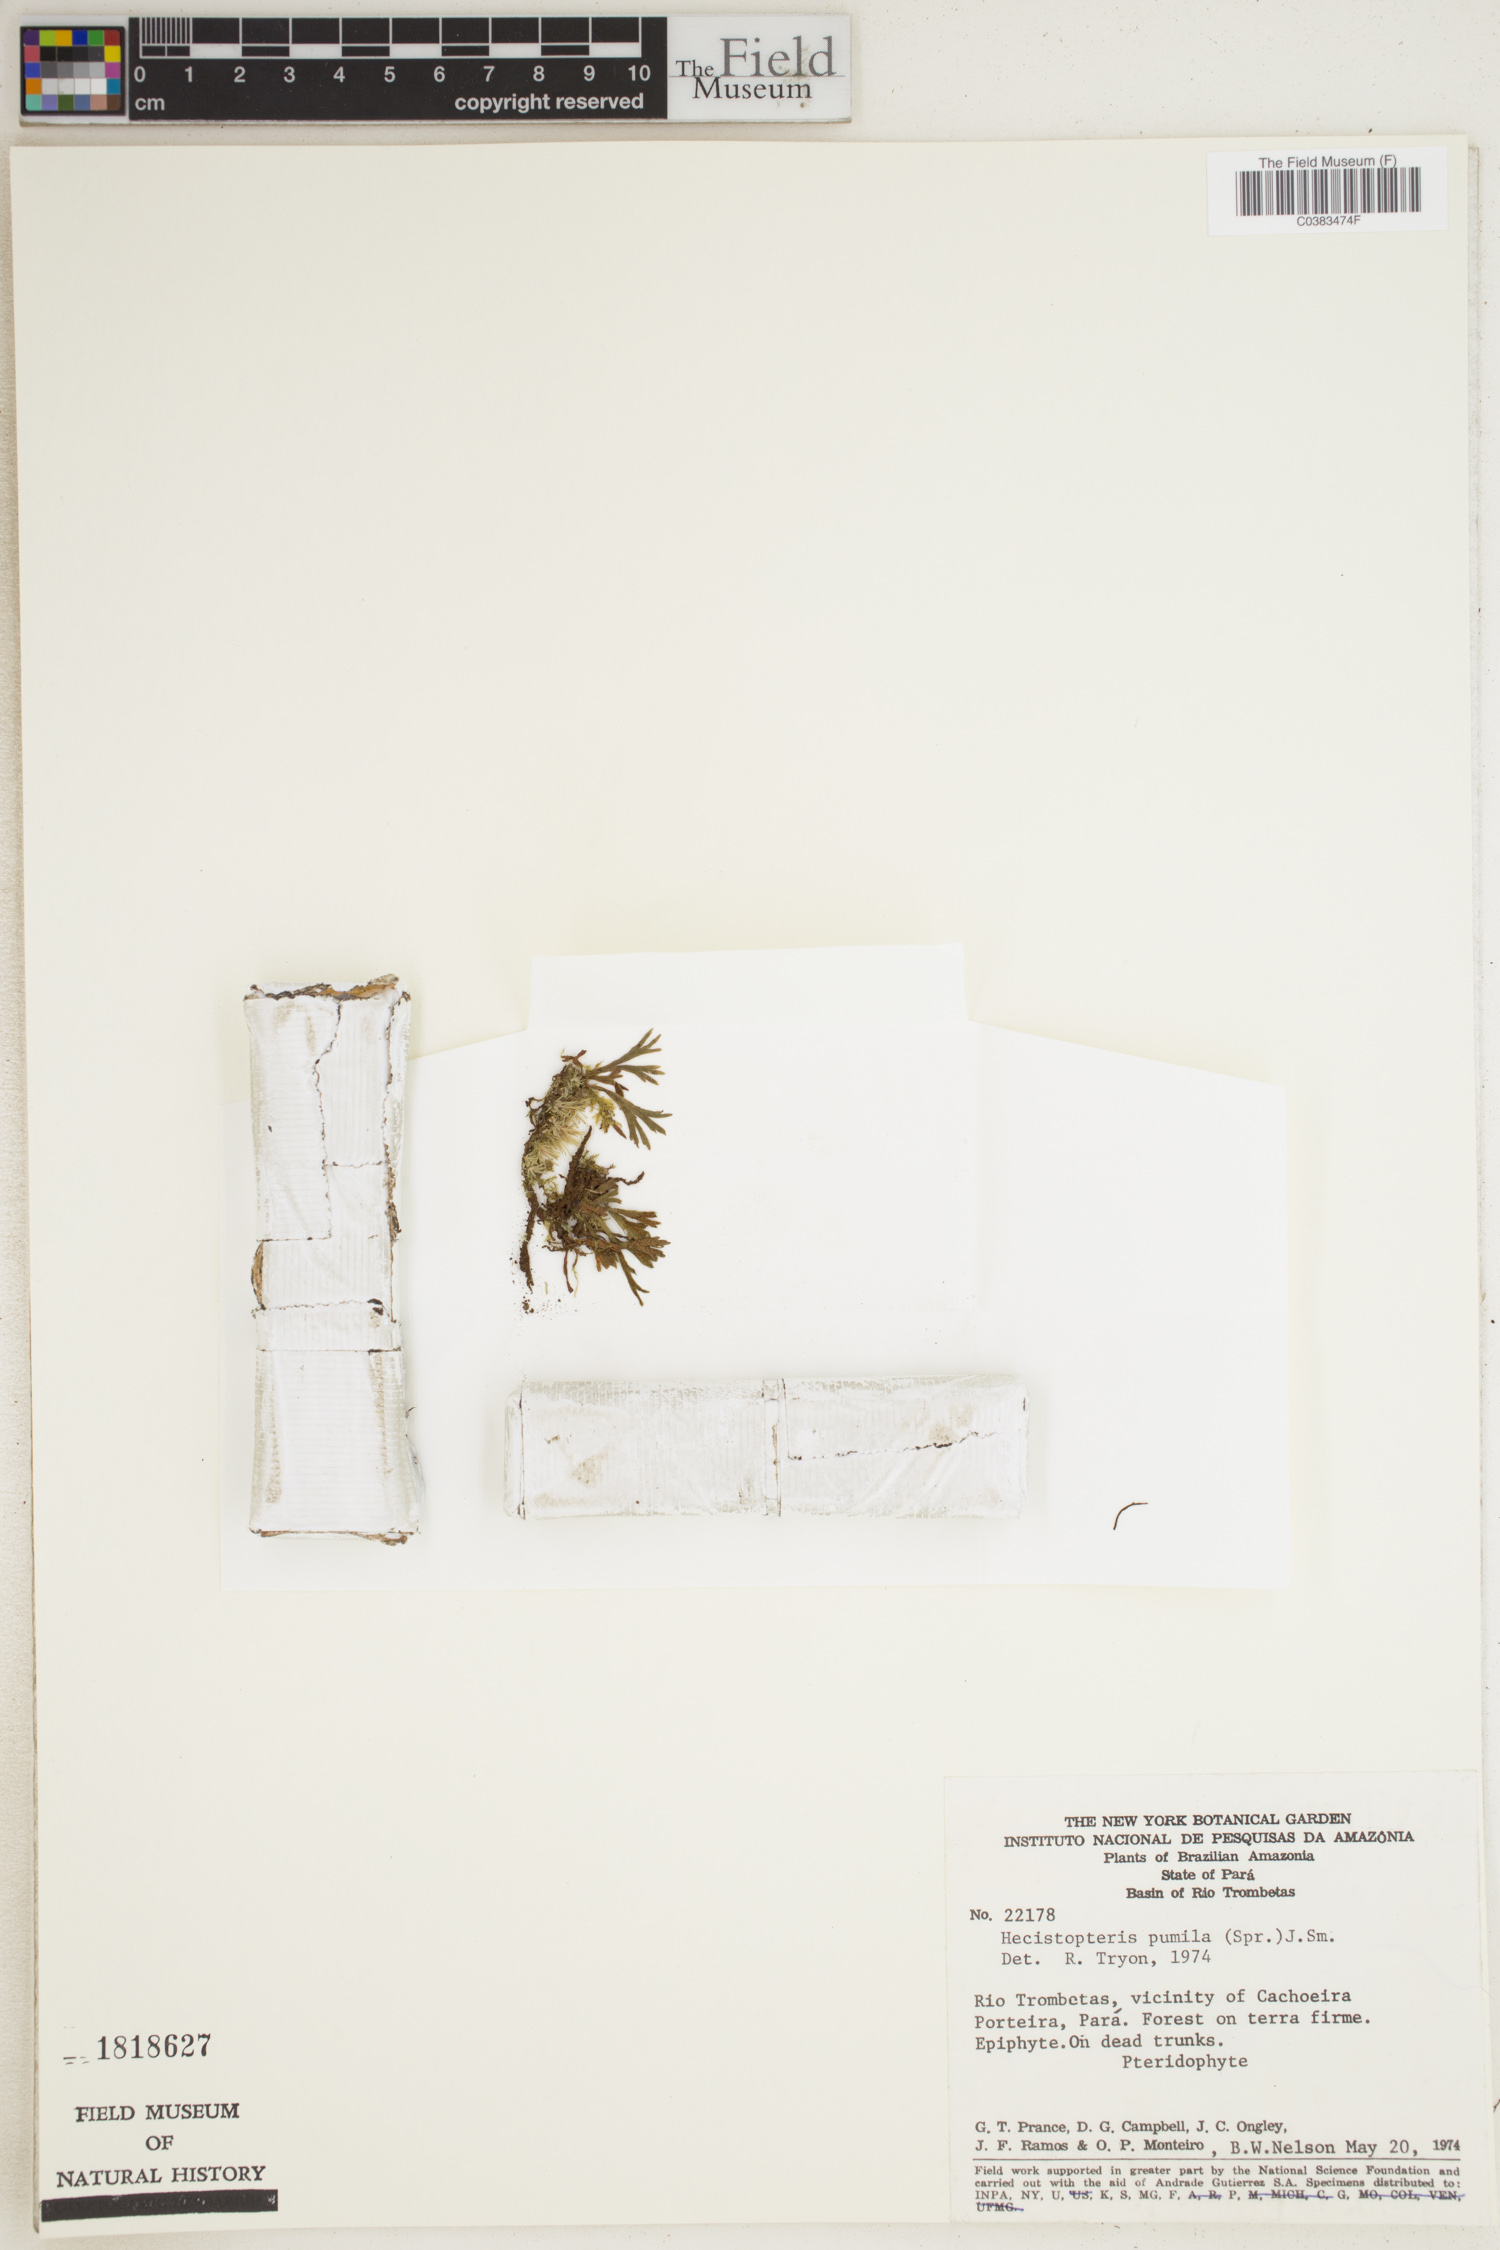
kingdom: Plantae
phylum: Tracheophyta
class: Polypodiopsida
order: Polypodiales
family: Pteridaceae
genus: Hecistopteris
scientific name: Hecistopteris pumila
